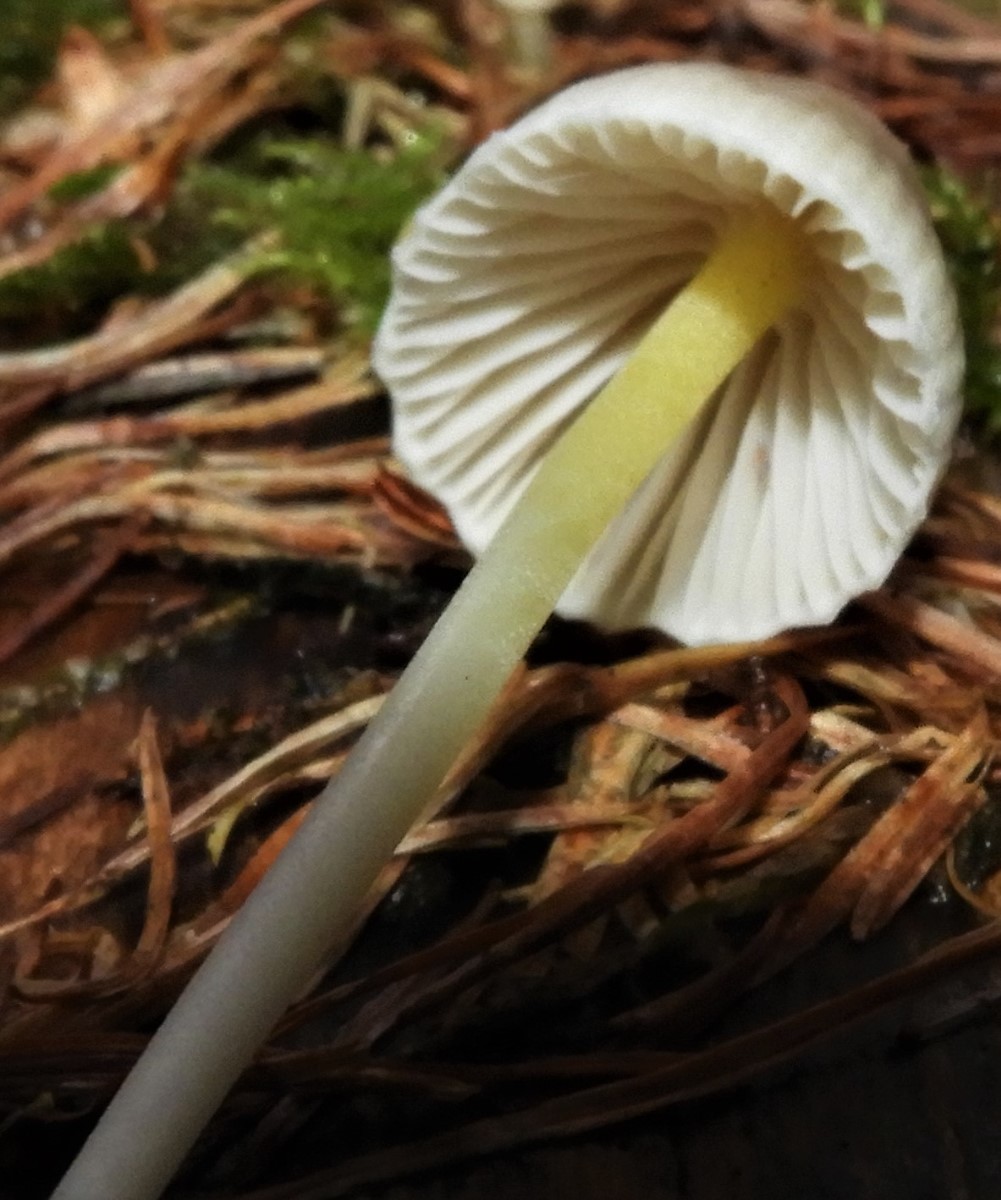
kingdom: Fungi
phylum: Basidiomycota
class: Agaricomycetes
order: Agaricales
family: Mycenaceae
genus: Mycena
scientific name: Mycena epipterygia
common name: gulstokket huesvamp
